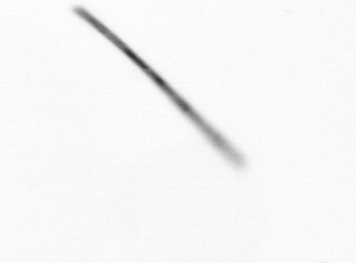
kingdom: Chromista
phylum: Ochrophyta
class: Bacillariophyceae
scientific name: Bacillariophyceae
